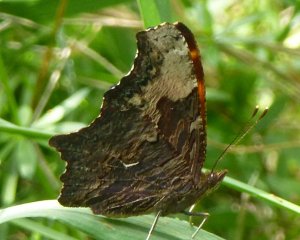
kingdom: Animalia
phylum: Arthropoda
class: Insecta
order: Lepidoptera
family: Nymphalidae
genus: Polygonia
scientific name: Polygonia progne
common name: Gray Comma
